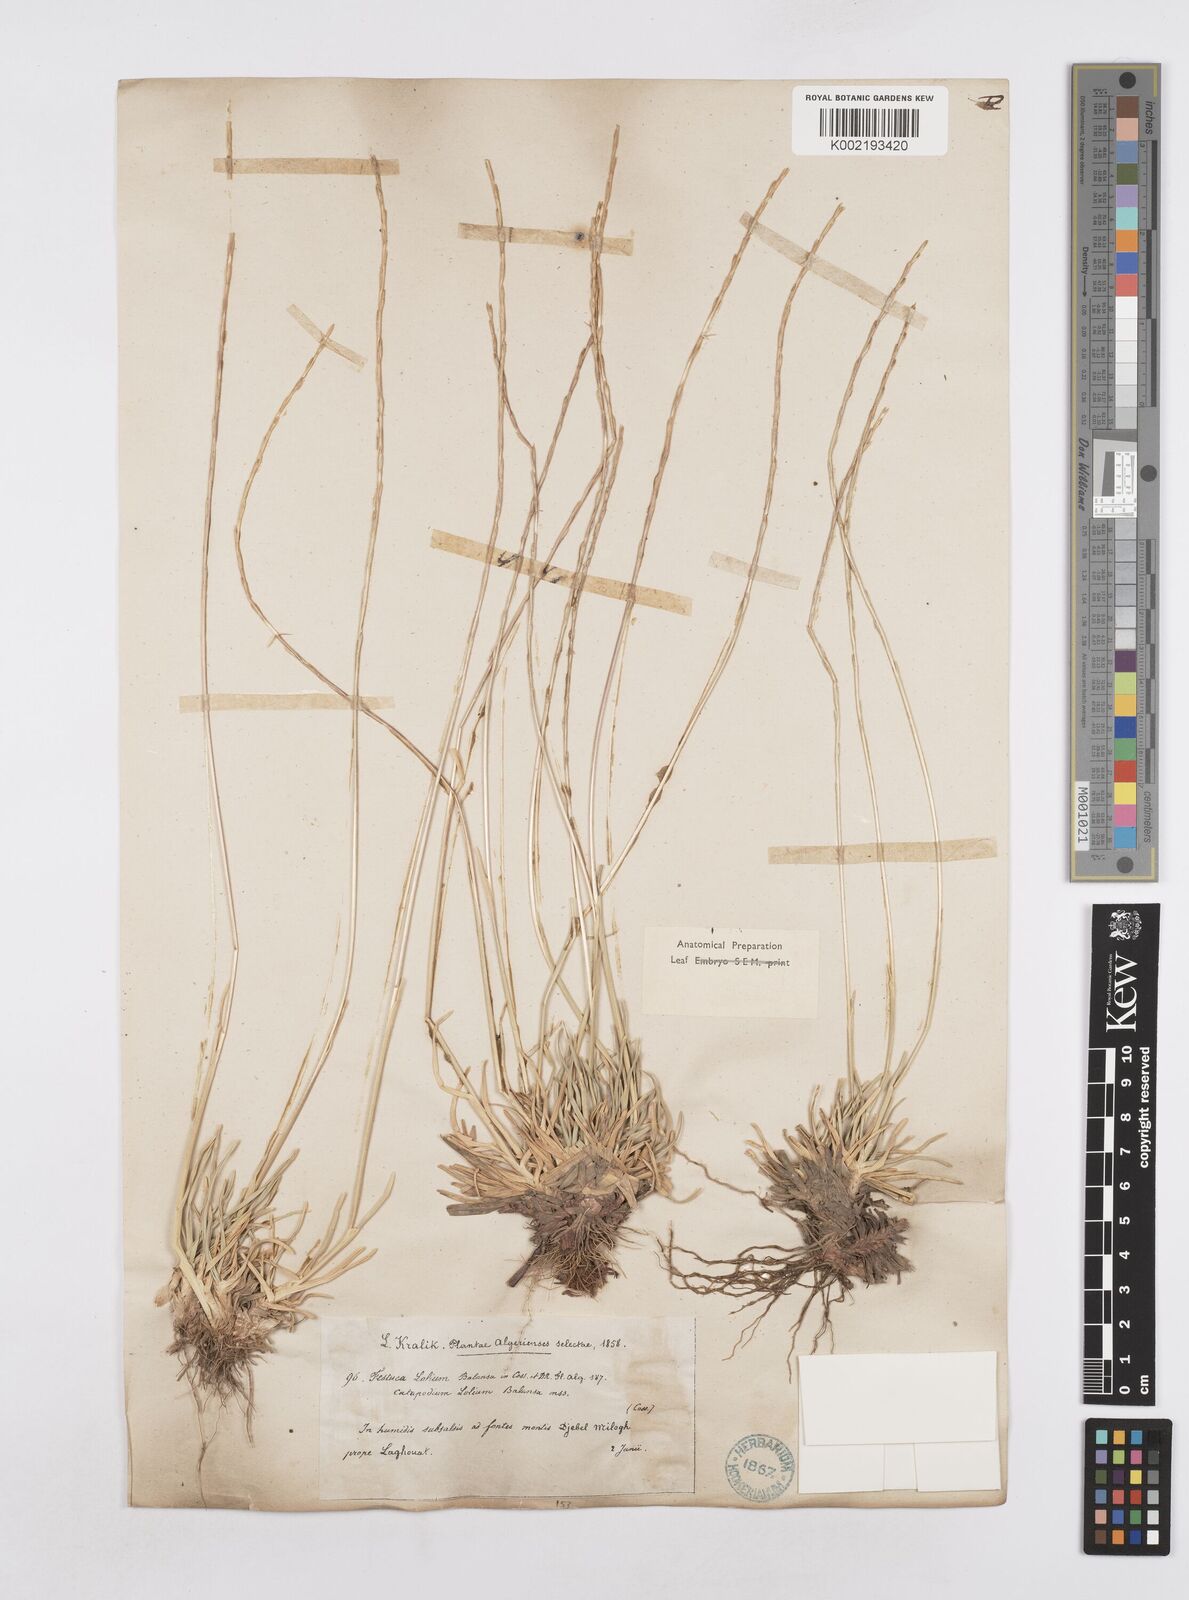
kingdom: Plantae
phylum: Tracheophyta
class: Liliopsida
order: Poales
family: Poaceae
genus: Agropyropsis
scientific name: Agropyropsis lolium
